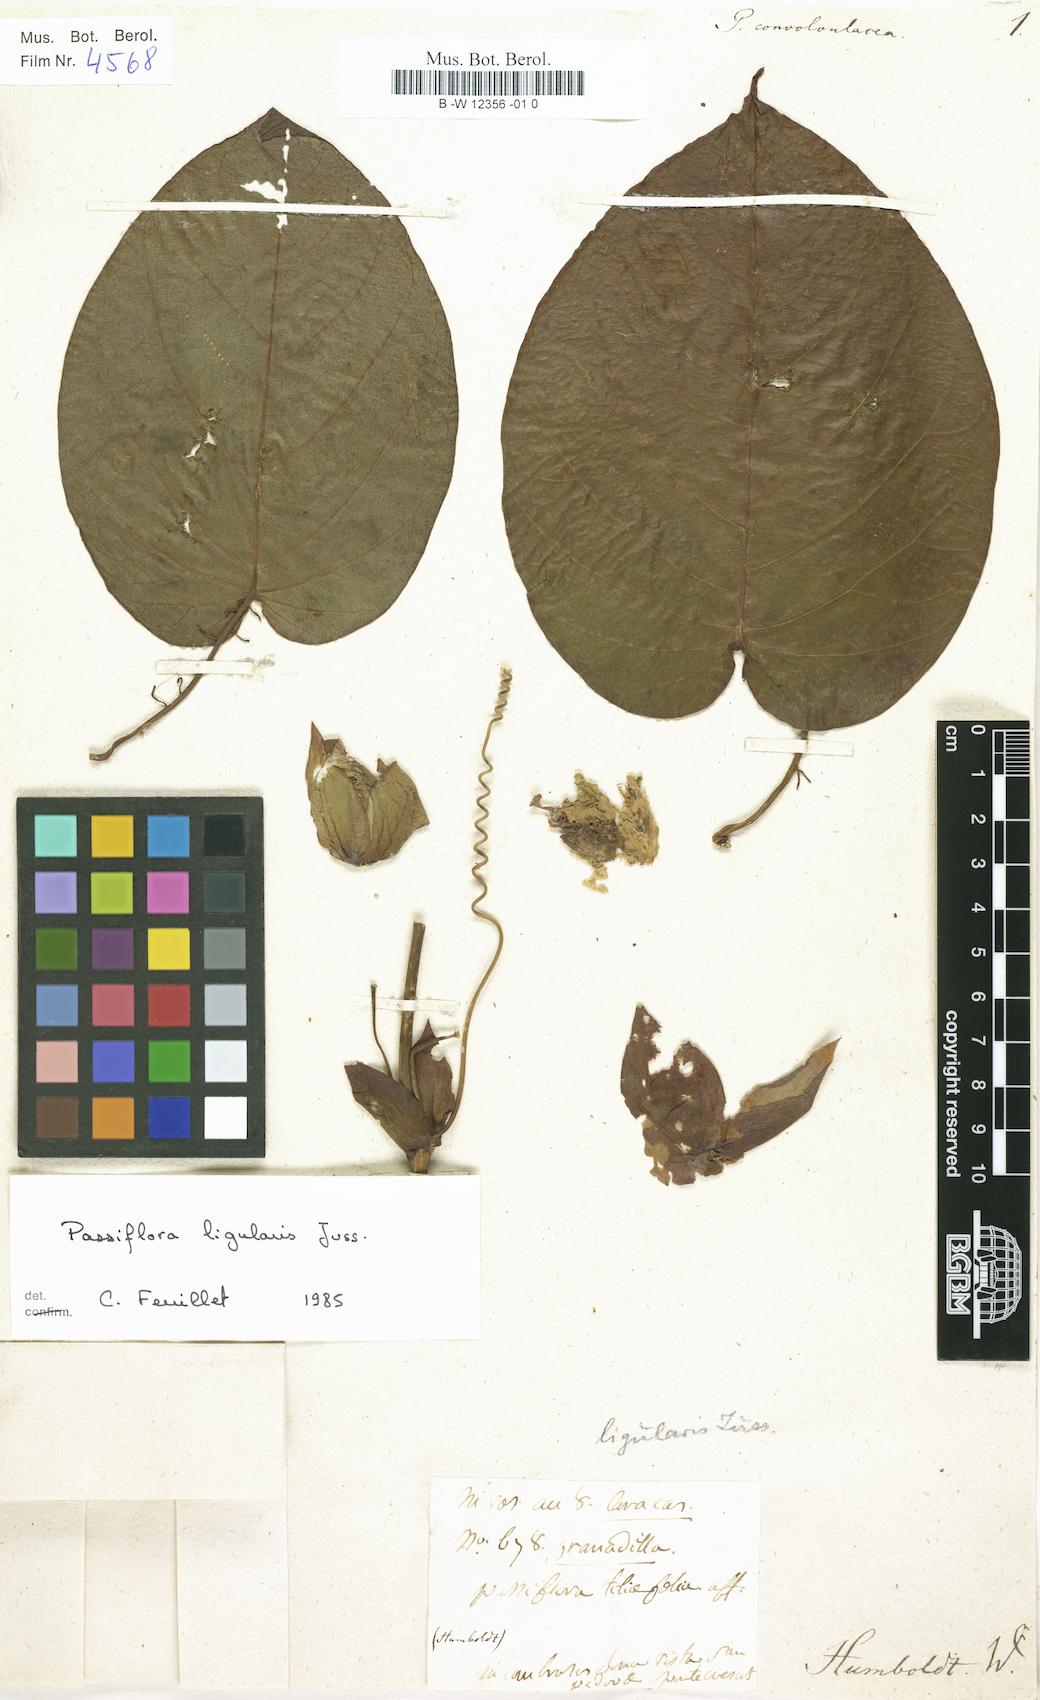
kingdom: Plantae
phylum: Tracheophyta
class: Magnoliopsida
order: Malpighiales
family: Passifloraceae
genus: Passiflora
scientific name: Passiflora
